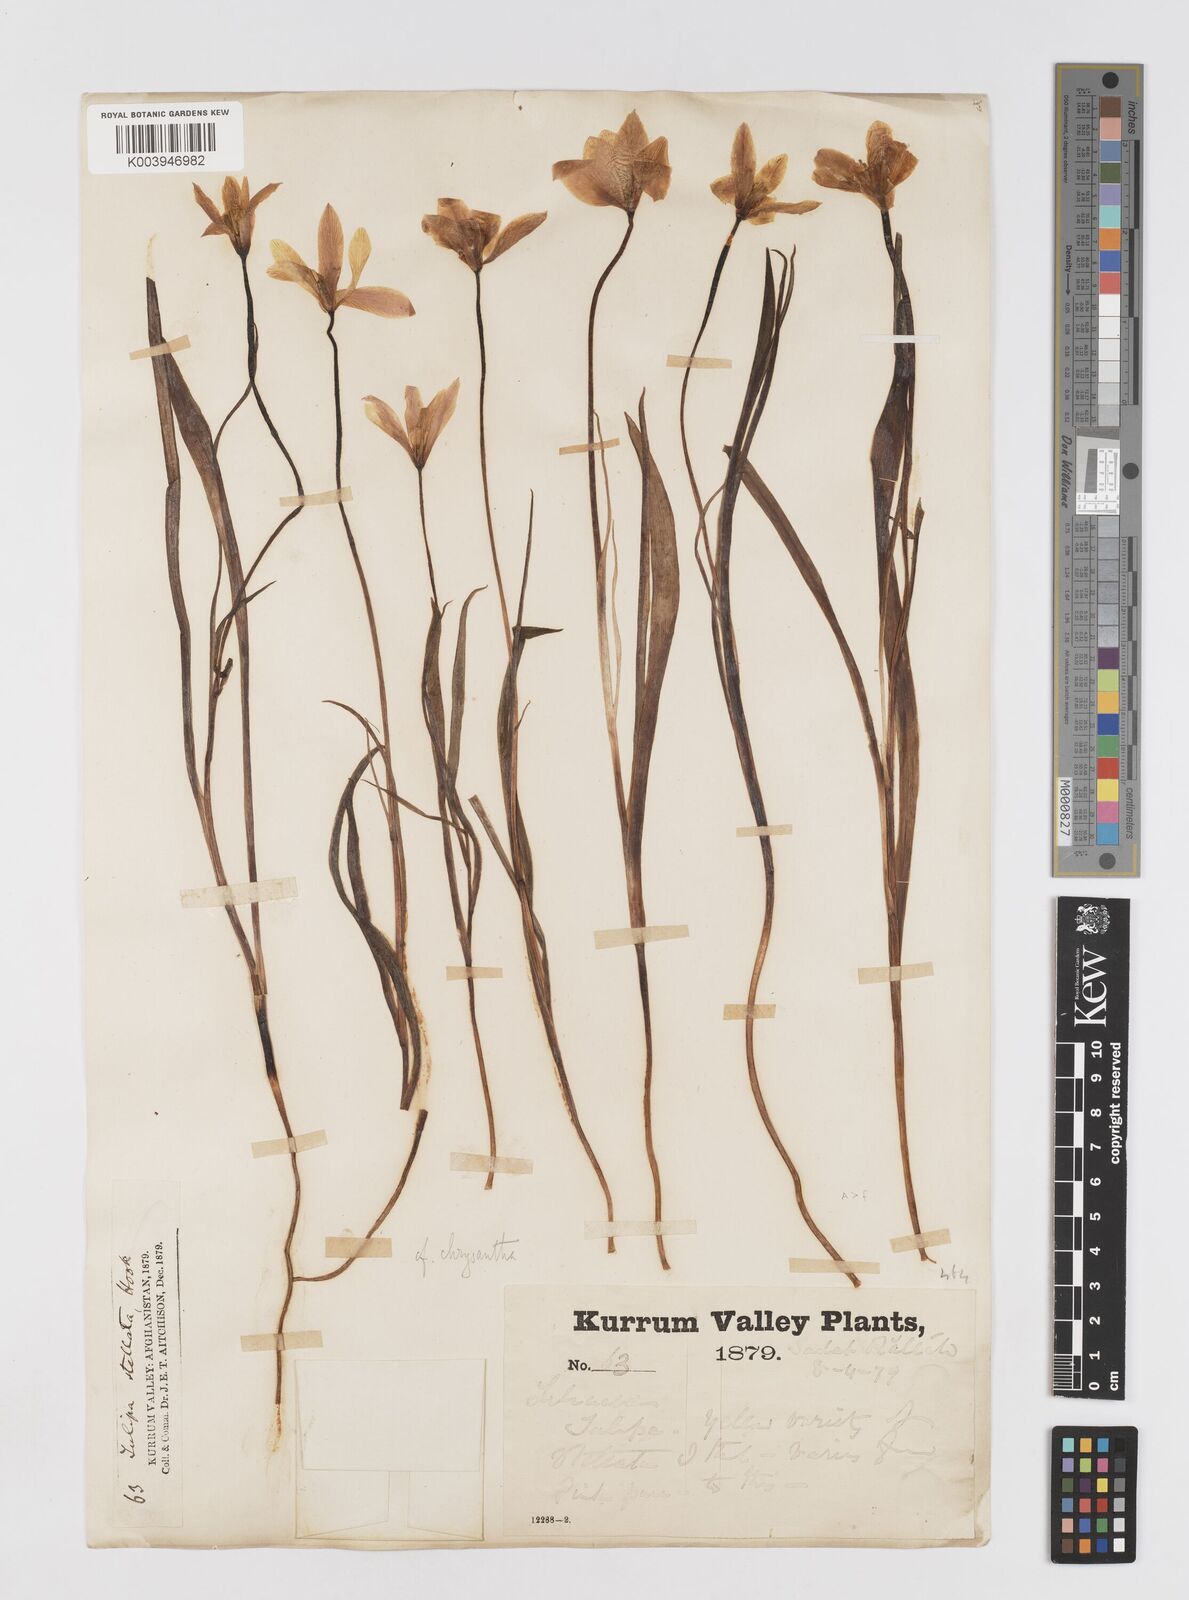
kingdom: Plantae
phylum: Tracheophyta
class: Liliopsida
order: Liliales
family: Liliaceae
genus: Tulipa
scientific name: Tulipa clusiana
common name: Lady tulip
